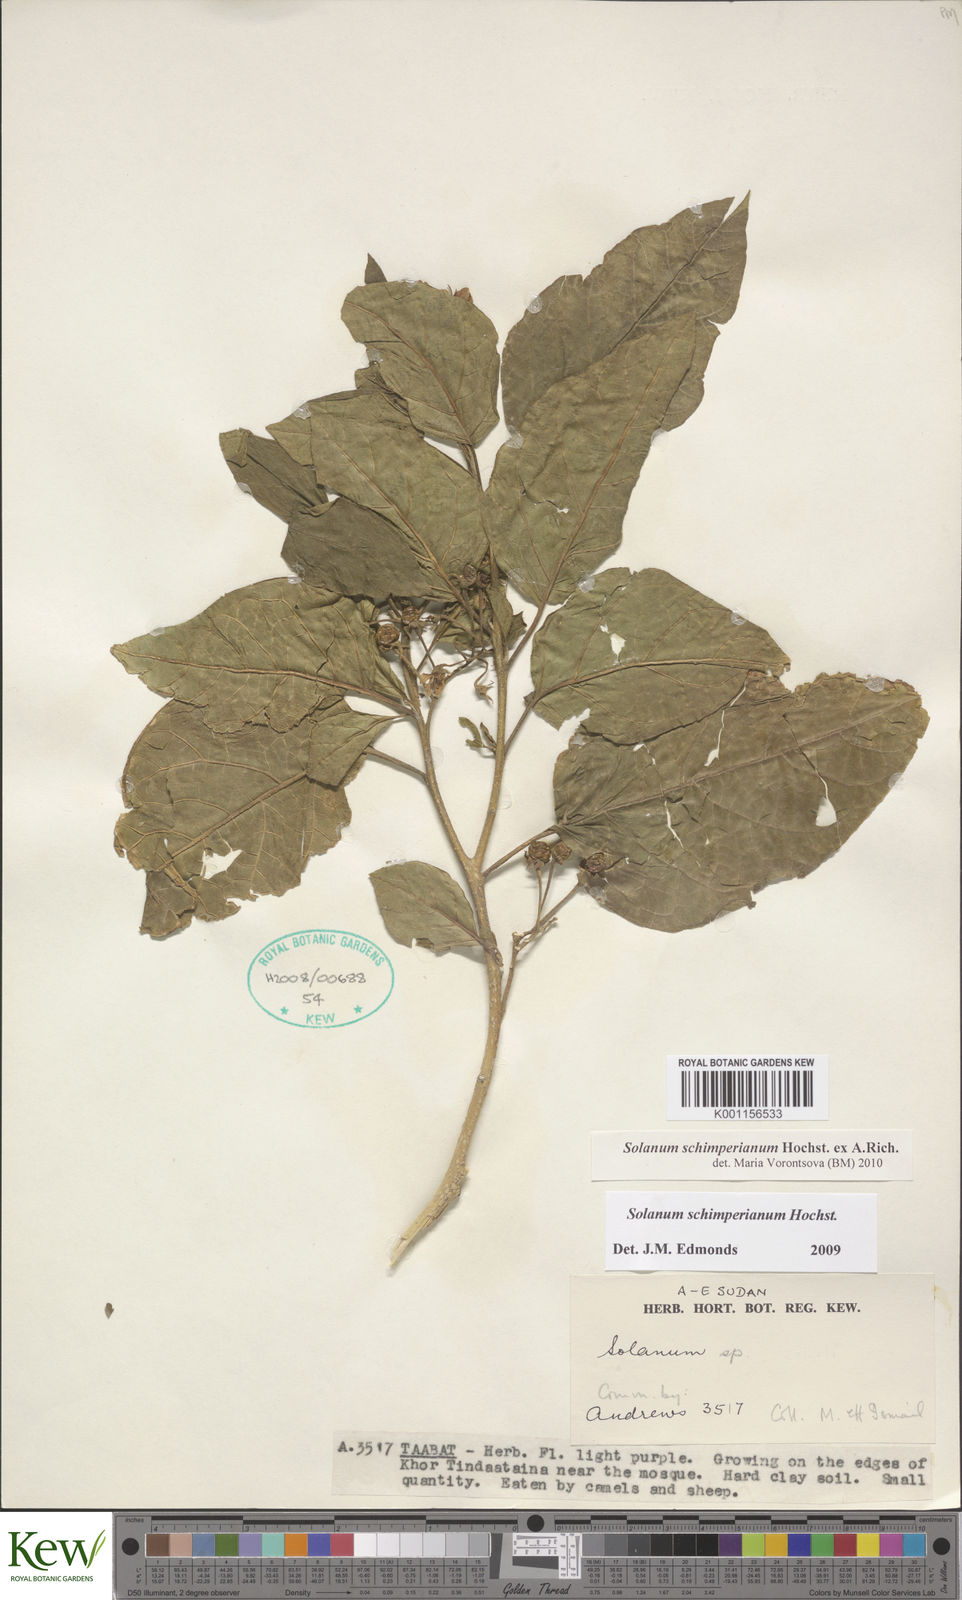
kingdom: Plantae
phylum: Tracheophyta
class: Magnoliopsida
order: Solanales
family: Solanaceae
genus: Solanum
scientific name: Solanum
